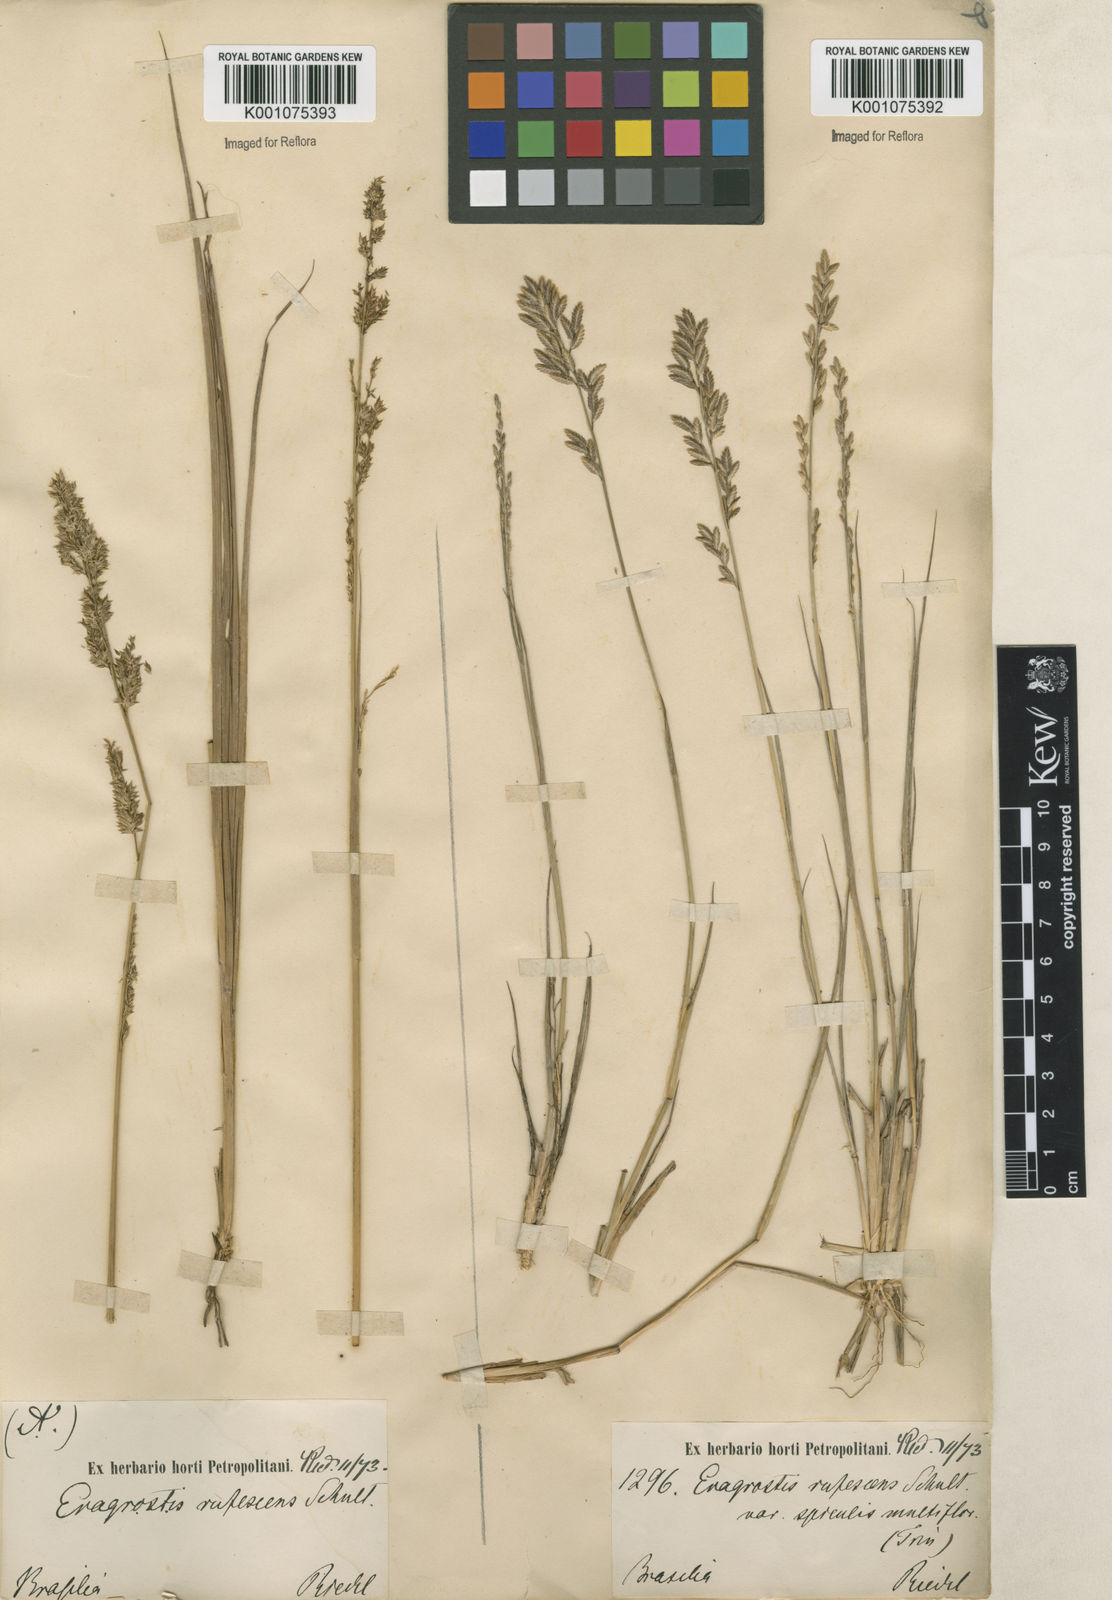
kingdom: Plantae
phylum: Tracheophyta
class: Liliopsida
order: Poales
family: Poaceae
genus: Eragrostis
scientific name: Eragrostis solida
